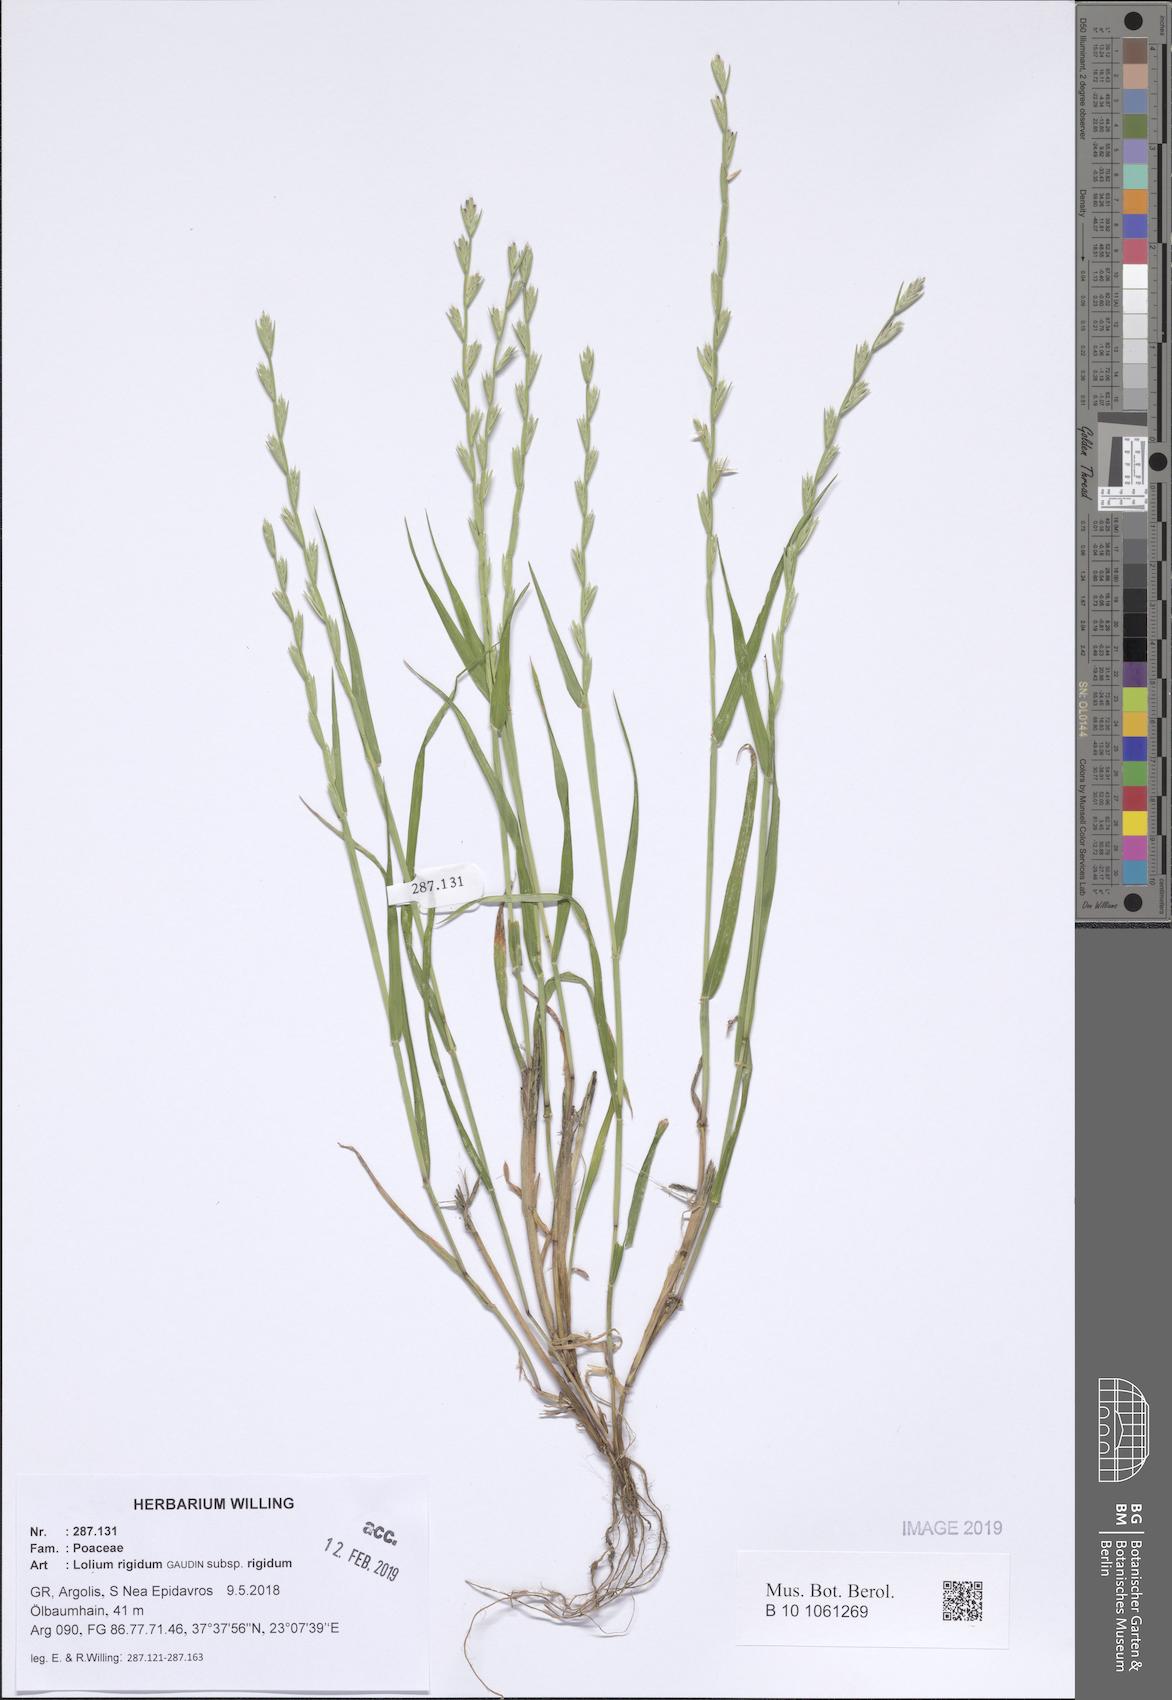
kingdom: Plantae
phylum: Tracheophyta
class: Liliopsida
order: Poales
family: Poaceae
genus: Lolium
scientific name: Lolium rigidum
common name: Wimmera ryegrass
